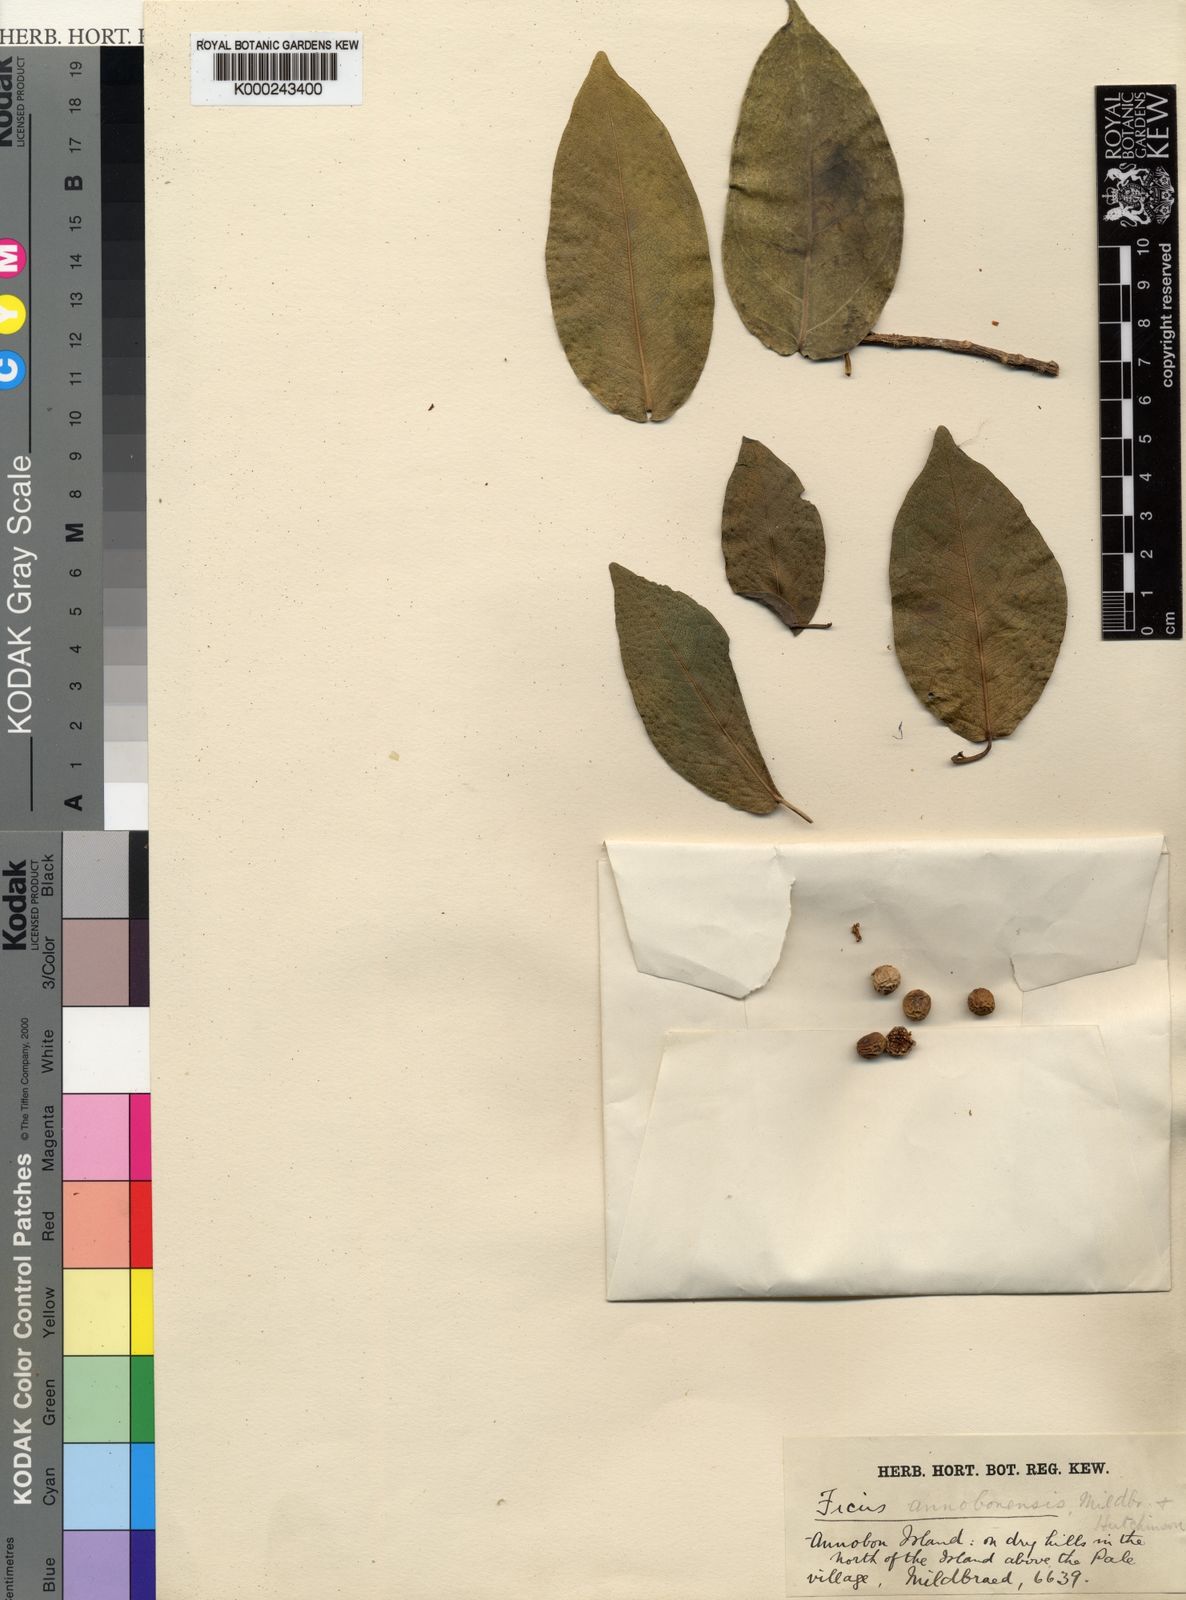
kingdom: Plantae
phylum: Tracheophyta
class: Magnoliopsida
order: Rosales
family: Moraceae
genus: Ficus
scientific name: Ficus thonningii
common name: Fig
